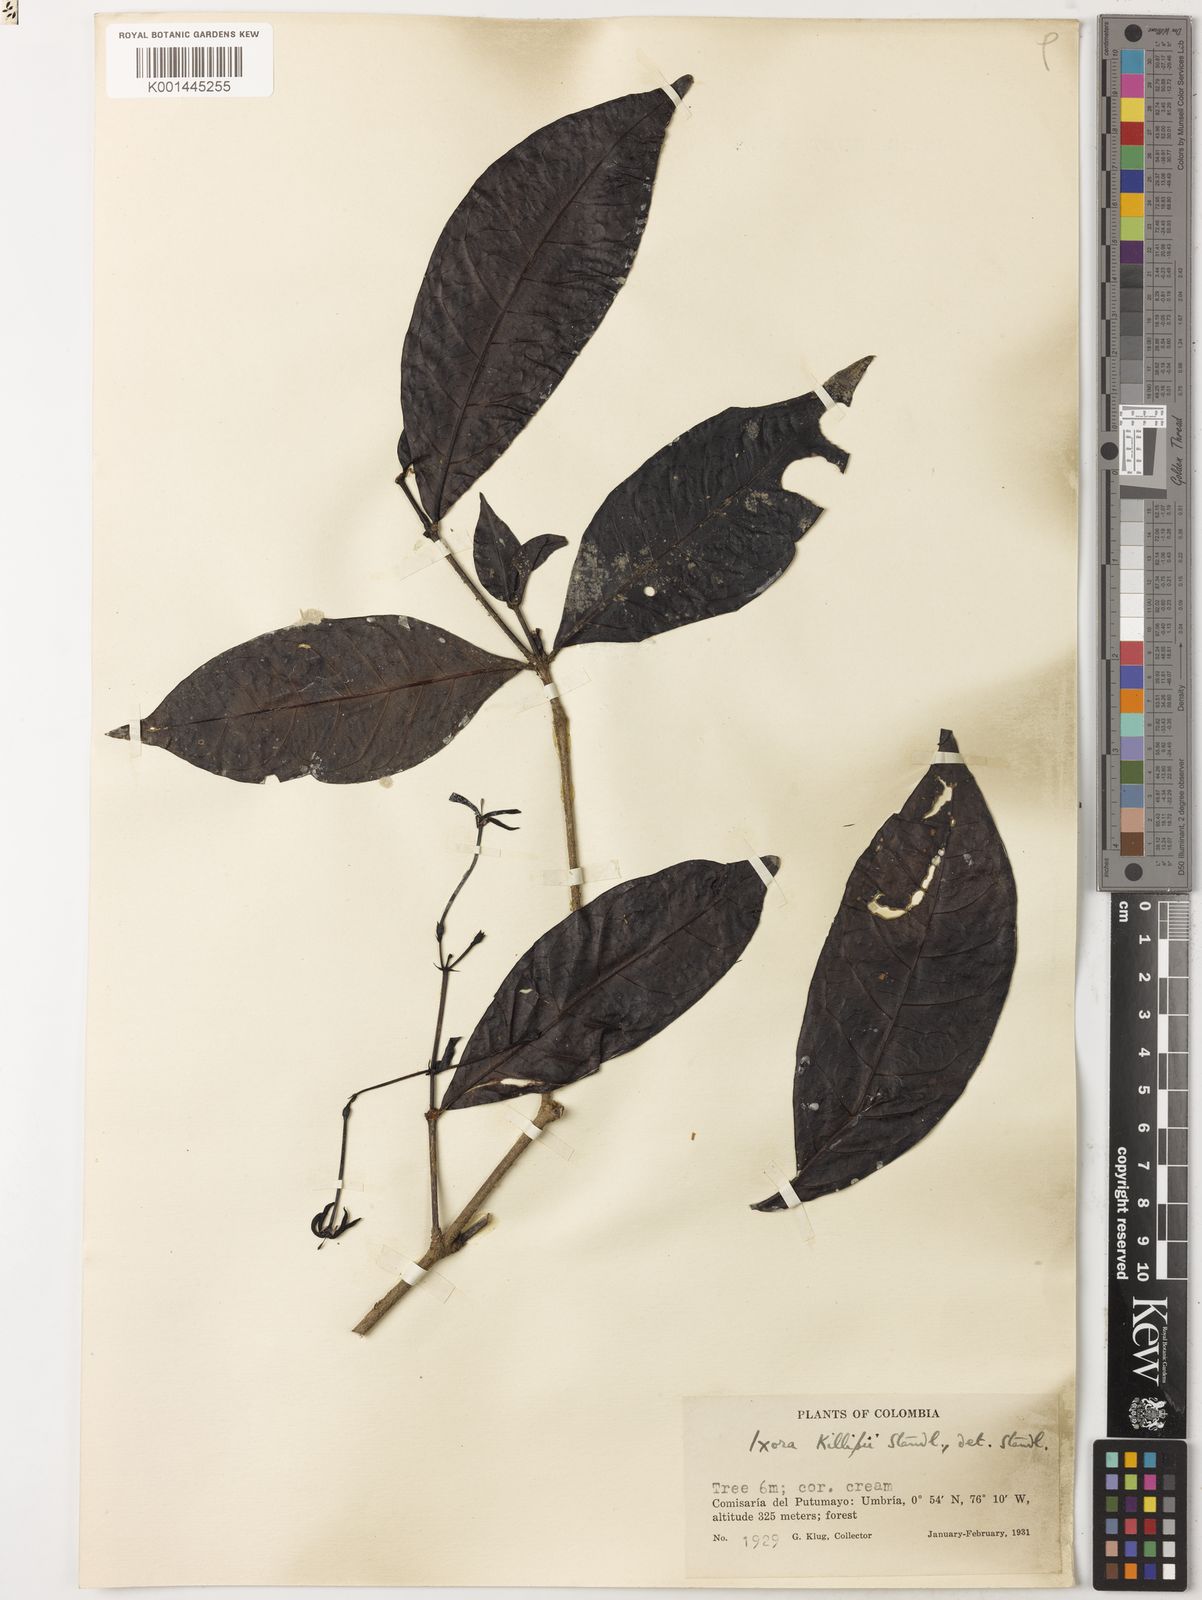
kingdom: Plantae
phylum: Tracheophyta
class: Magnoliopsida
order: Gentianales
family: Rubiaceae
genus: Ixora
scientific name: Ixora killipii
